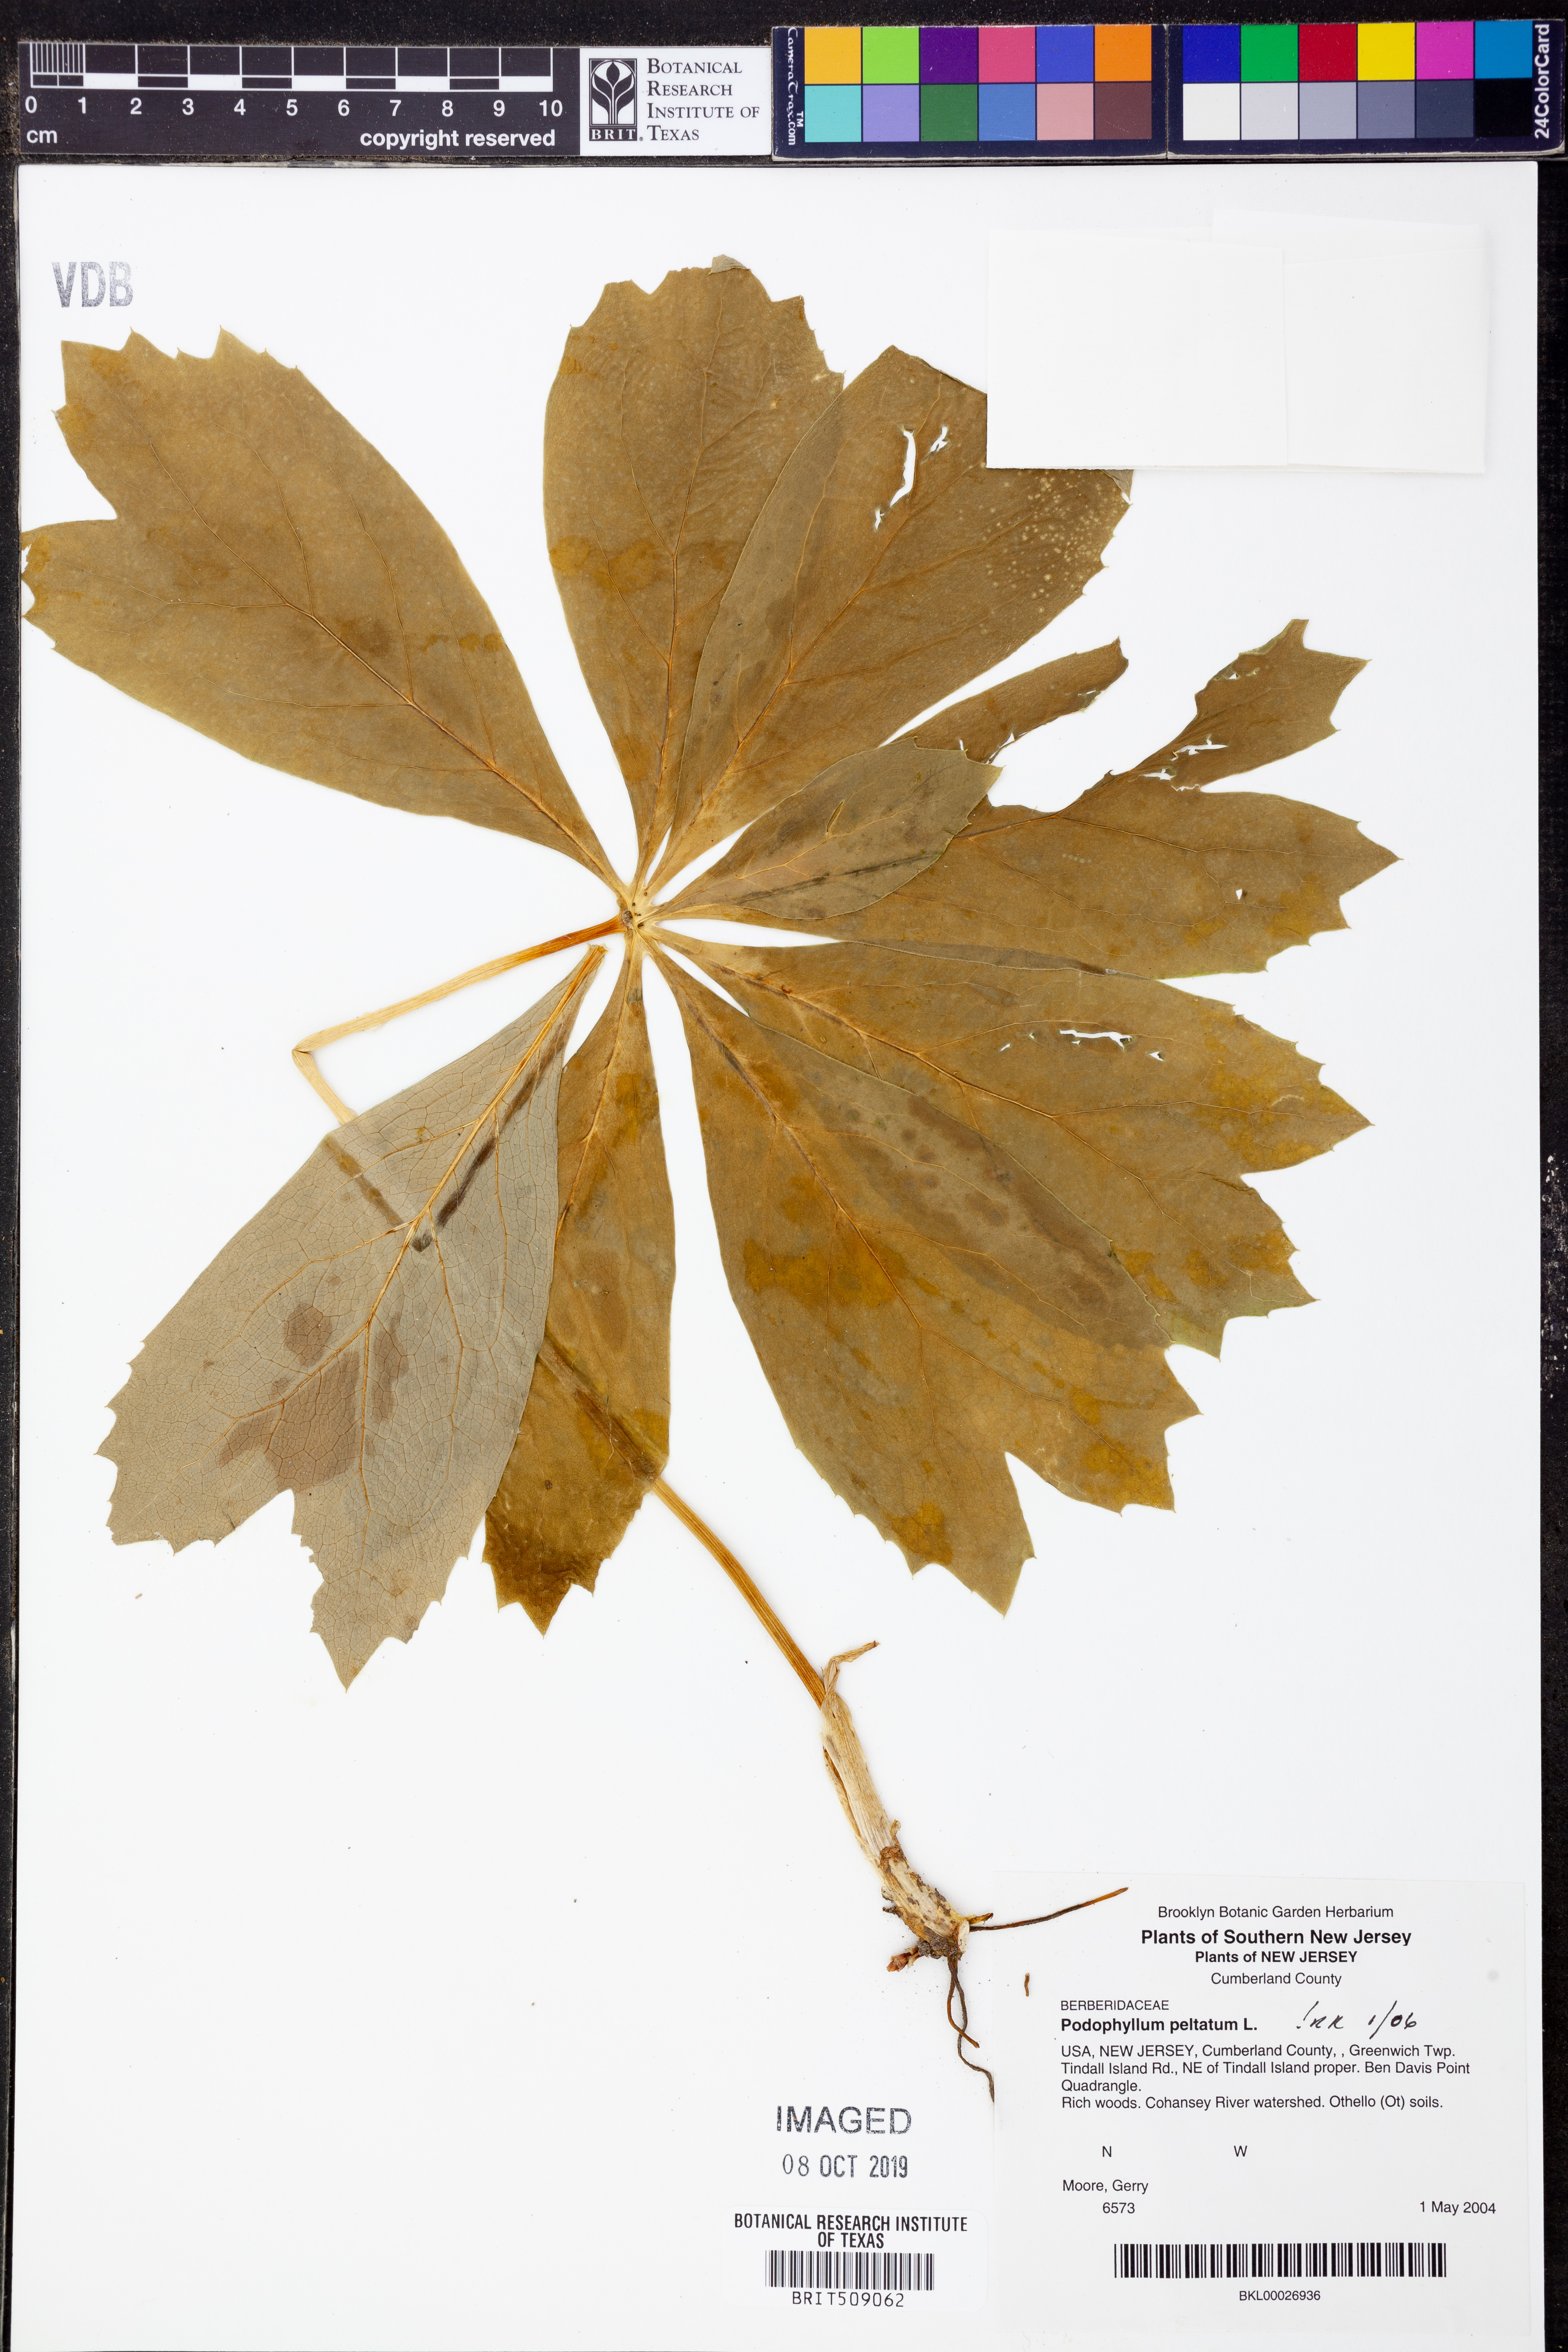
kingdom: Plantae
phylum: Tracheophyta
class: Magnoliopsida
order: Ranunculales
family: Berberidaceae
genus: Podophyllum
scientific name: Podophyllum peltatum
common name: Wild mandrake
